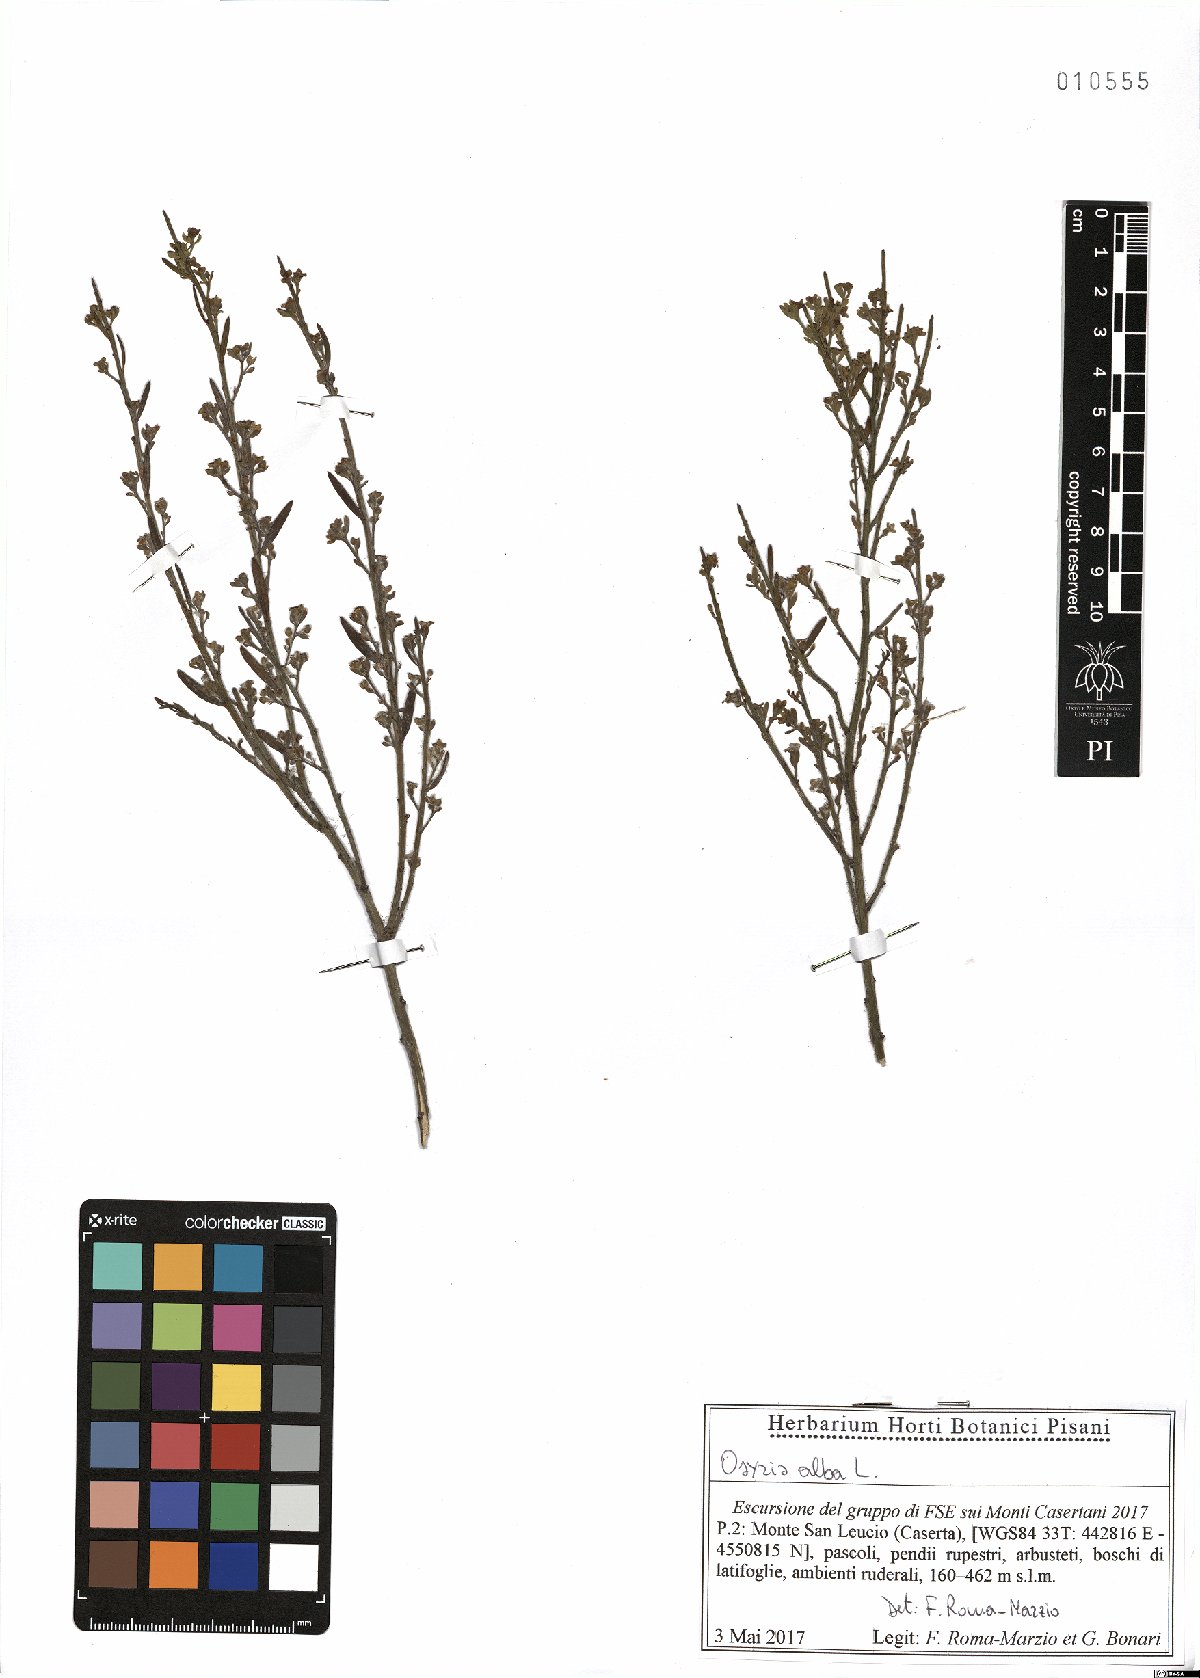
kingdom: Plantae
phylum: Tracheophyta
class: Magnoliopsida
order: Santalales
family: Santalaceae
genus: Osyris
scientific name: Osyris alba
